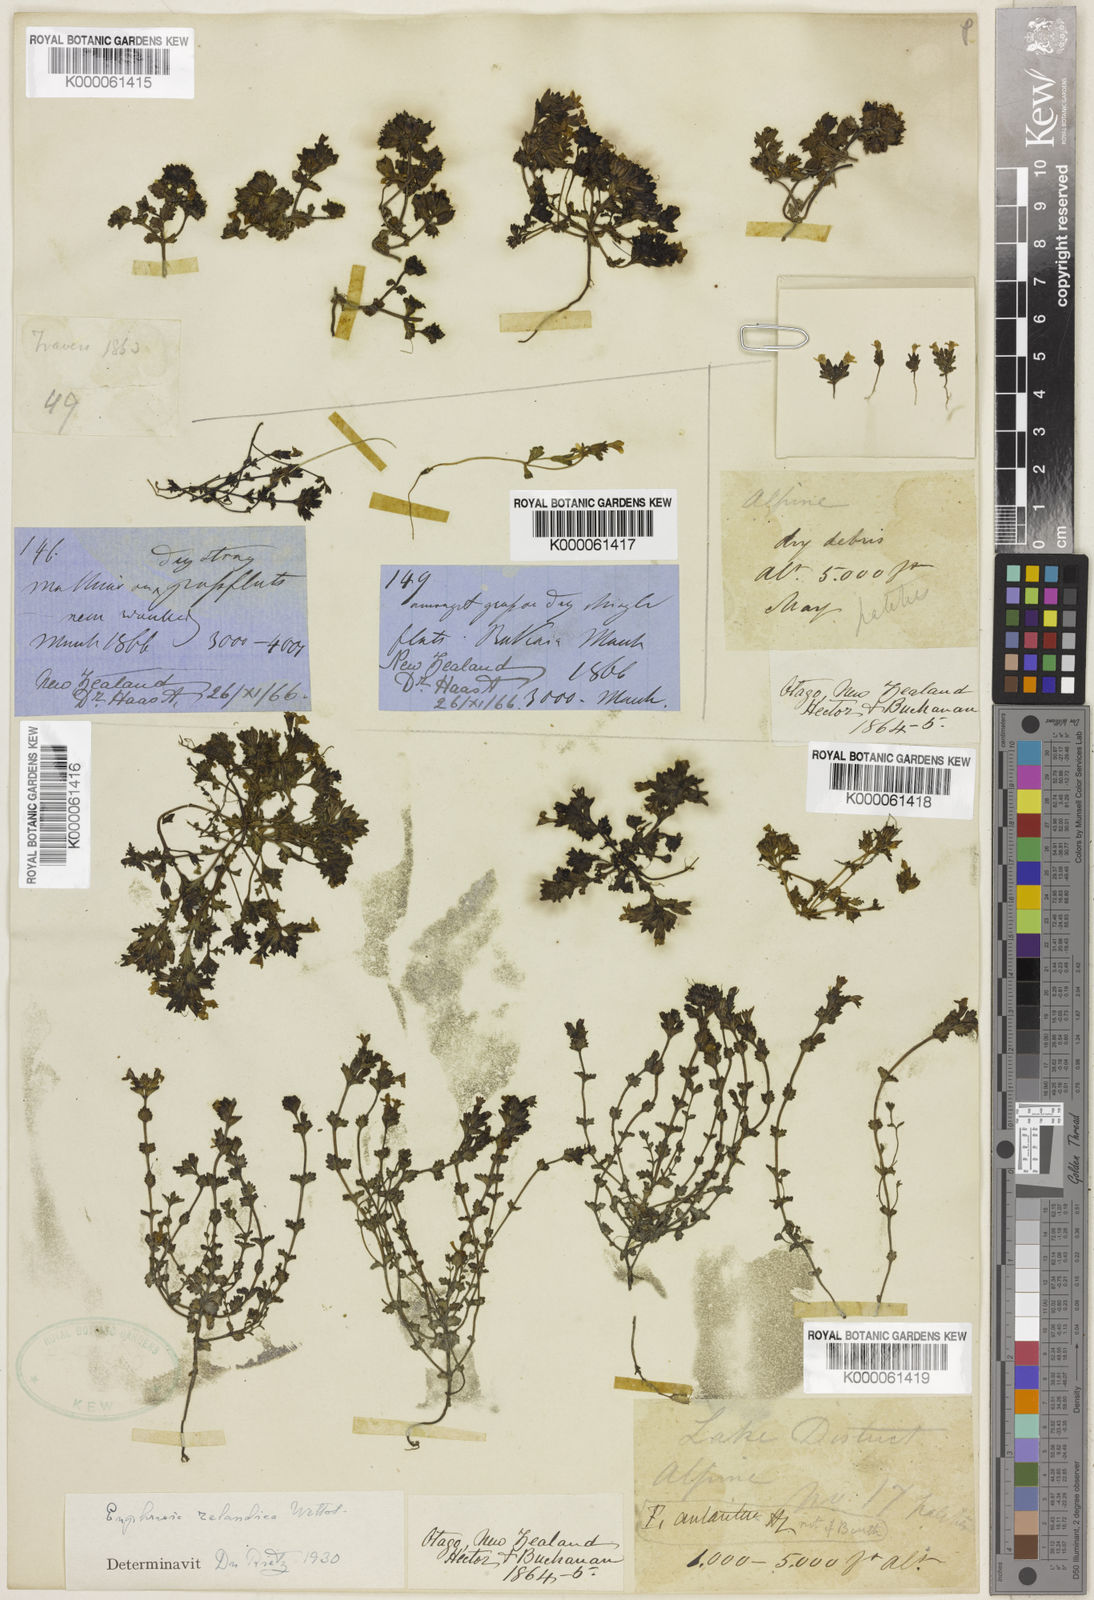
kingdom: Plantae
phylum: Tracheophyta
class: Magnoliopsida
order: Lamiales
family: Orobanchaceae
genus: Euphrasia
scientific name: Euphrasia zelandica
